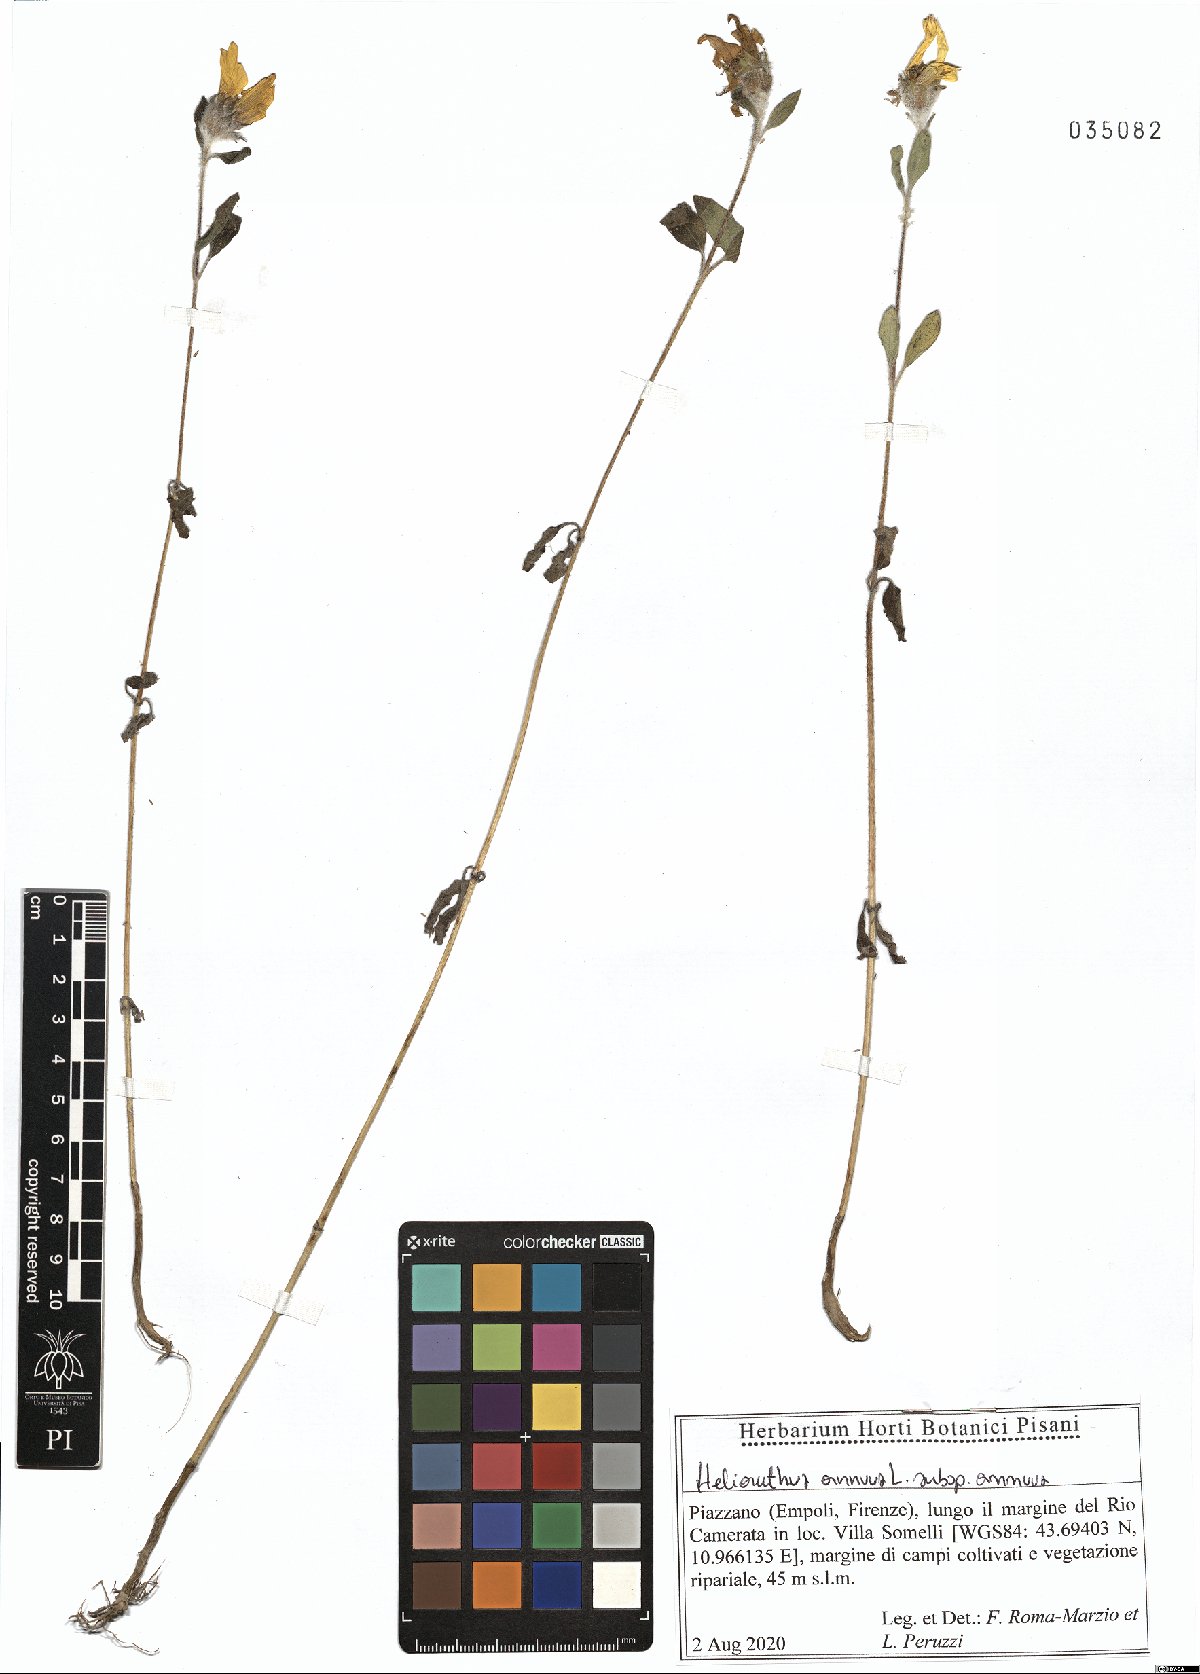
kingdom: Plantae
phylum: Tracheophyta
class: Magnoliopsida
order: Asterales
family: Asteraceae
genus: Helianthus
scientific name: Helianthus annuus
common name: Sunflower
